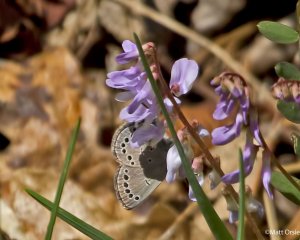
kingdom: Animalia
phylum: Arthropoda
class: Insecta
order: Lepidoptera
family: Lycaenidae
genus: Glaucopsyche
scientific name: Glaucopsyche lygdamus
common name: Silvery Blue
